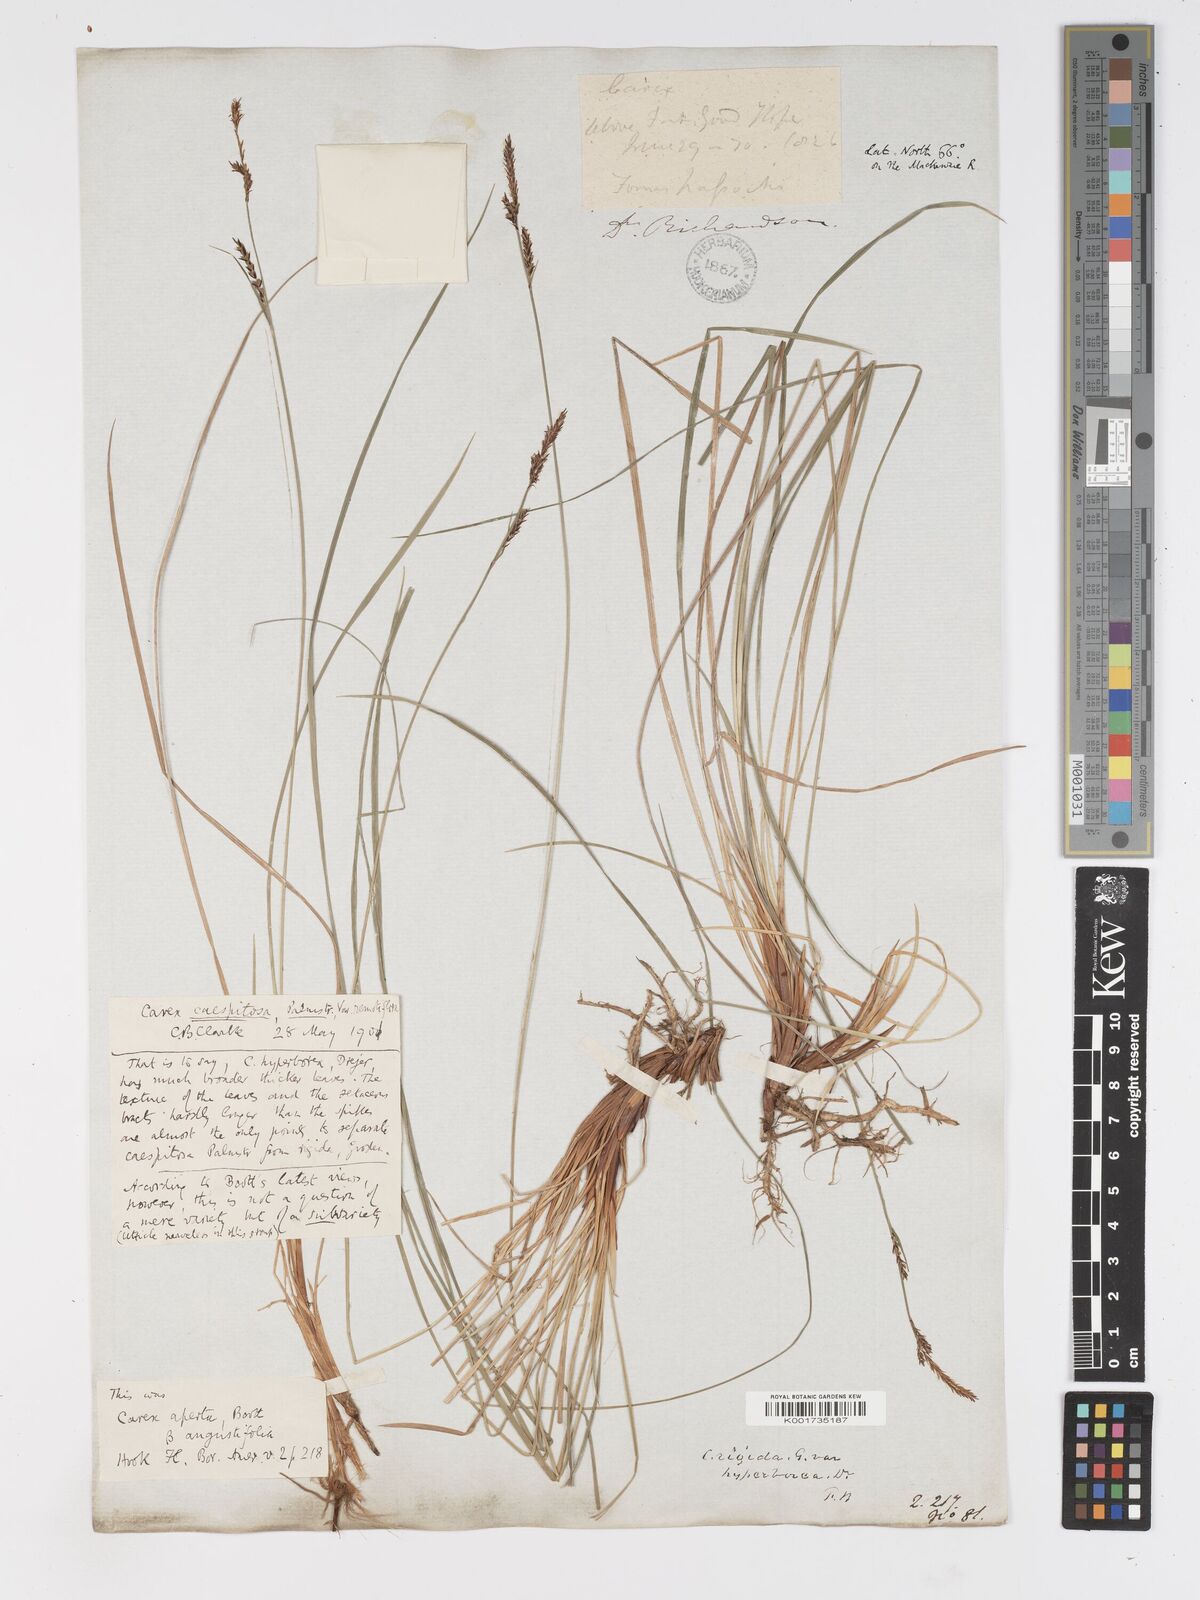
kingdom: Plantae
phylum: Tracheophyta
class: Liliopsida
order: Poales
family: Cyperaceae
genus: Carex
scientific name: Carex bigelowii
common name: Stiff sedge
